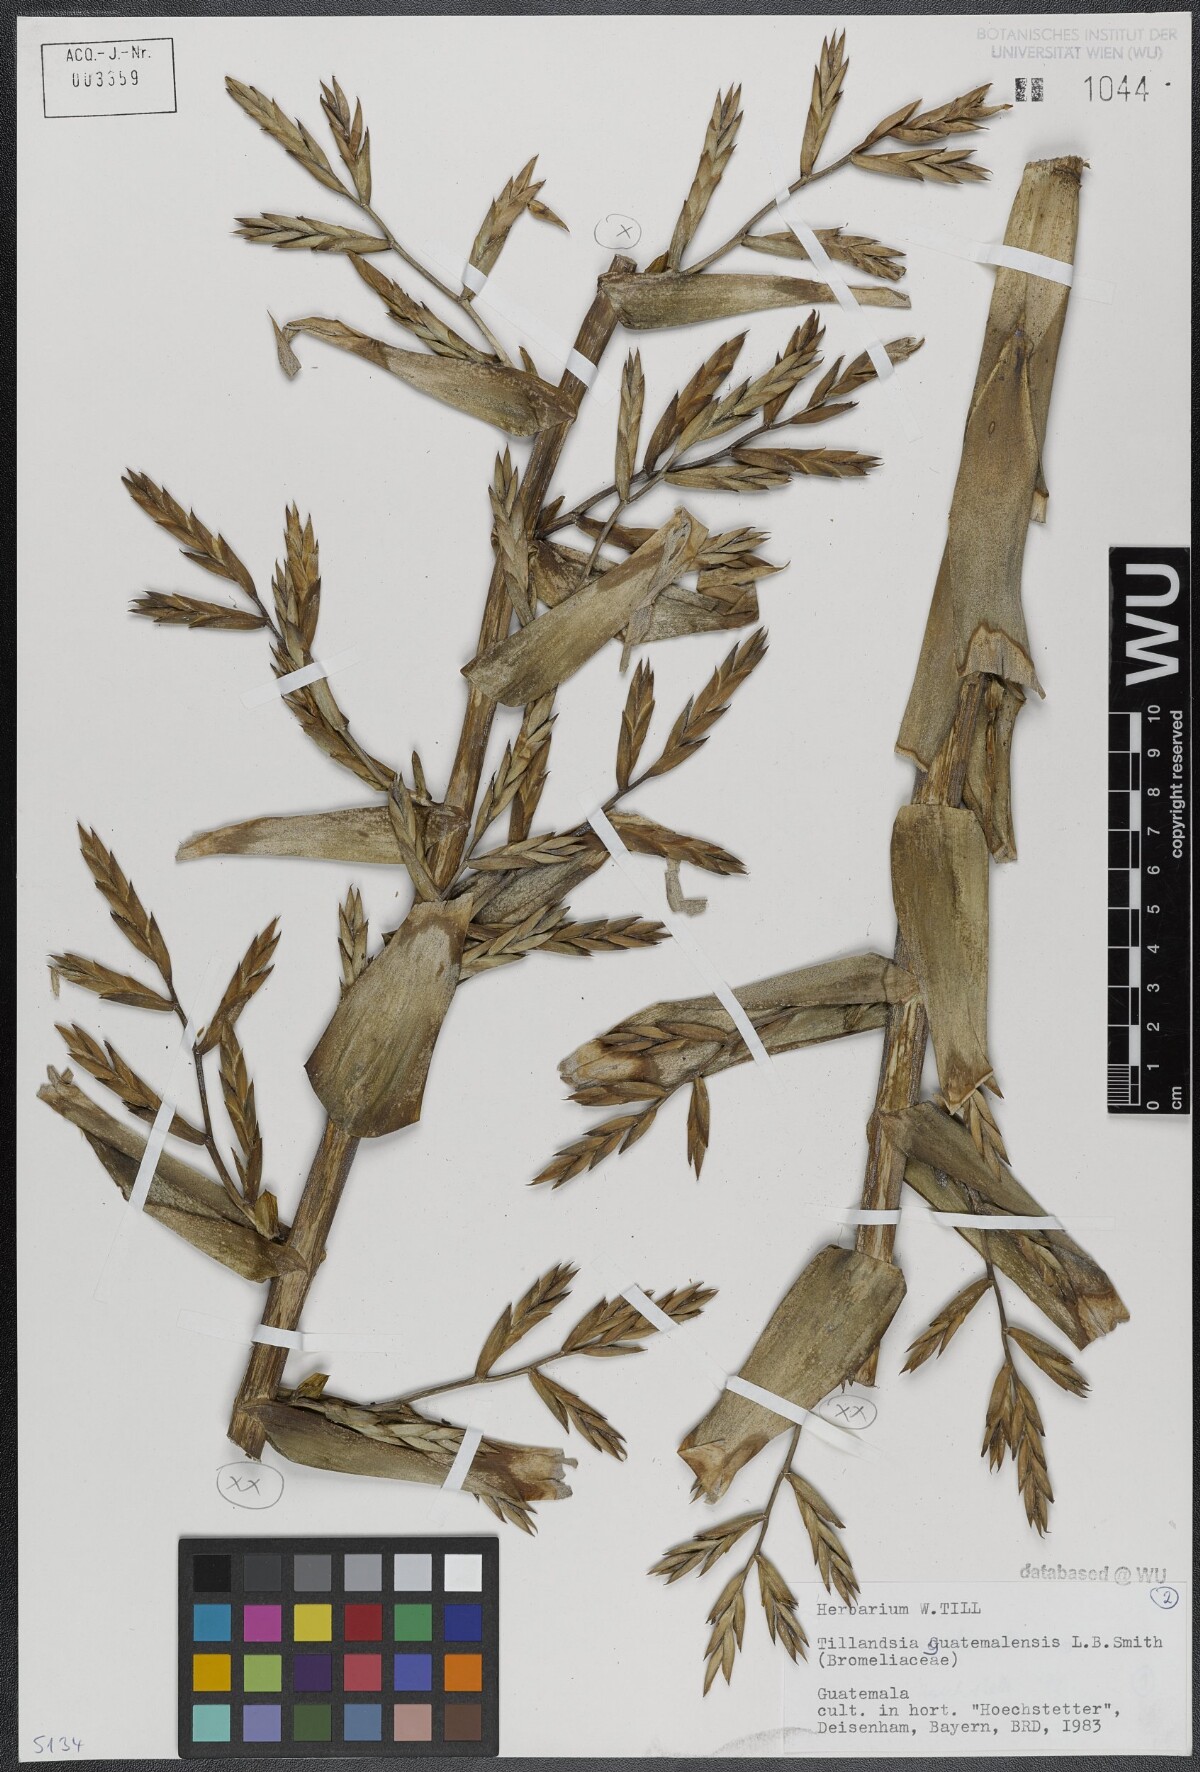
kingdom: Plantae
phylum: Tracheophyta
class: Liliopsida
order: Poales
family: Bromeliaceae
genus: Tillandsia
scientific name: Tillandsia guatemalensis
